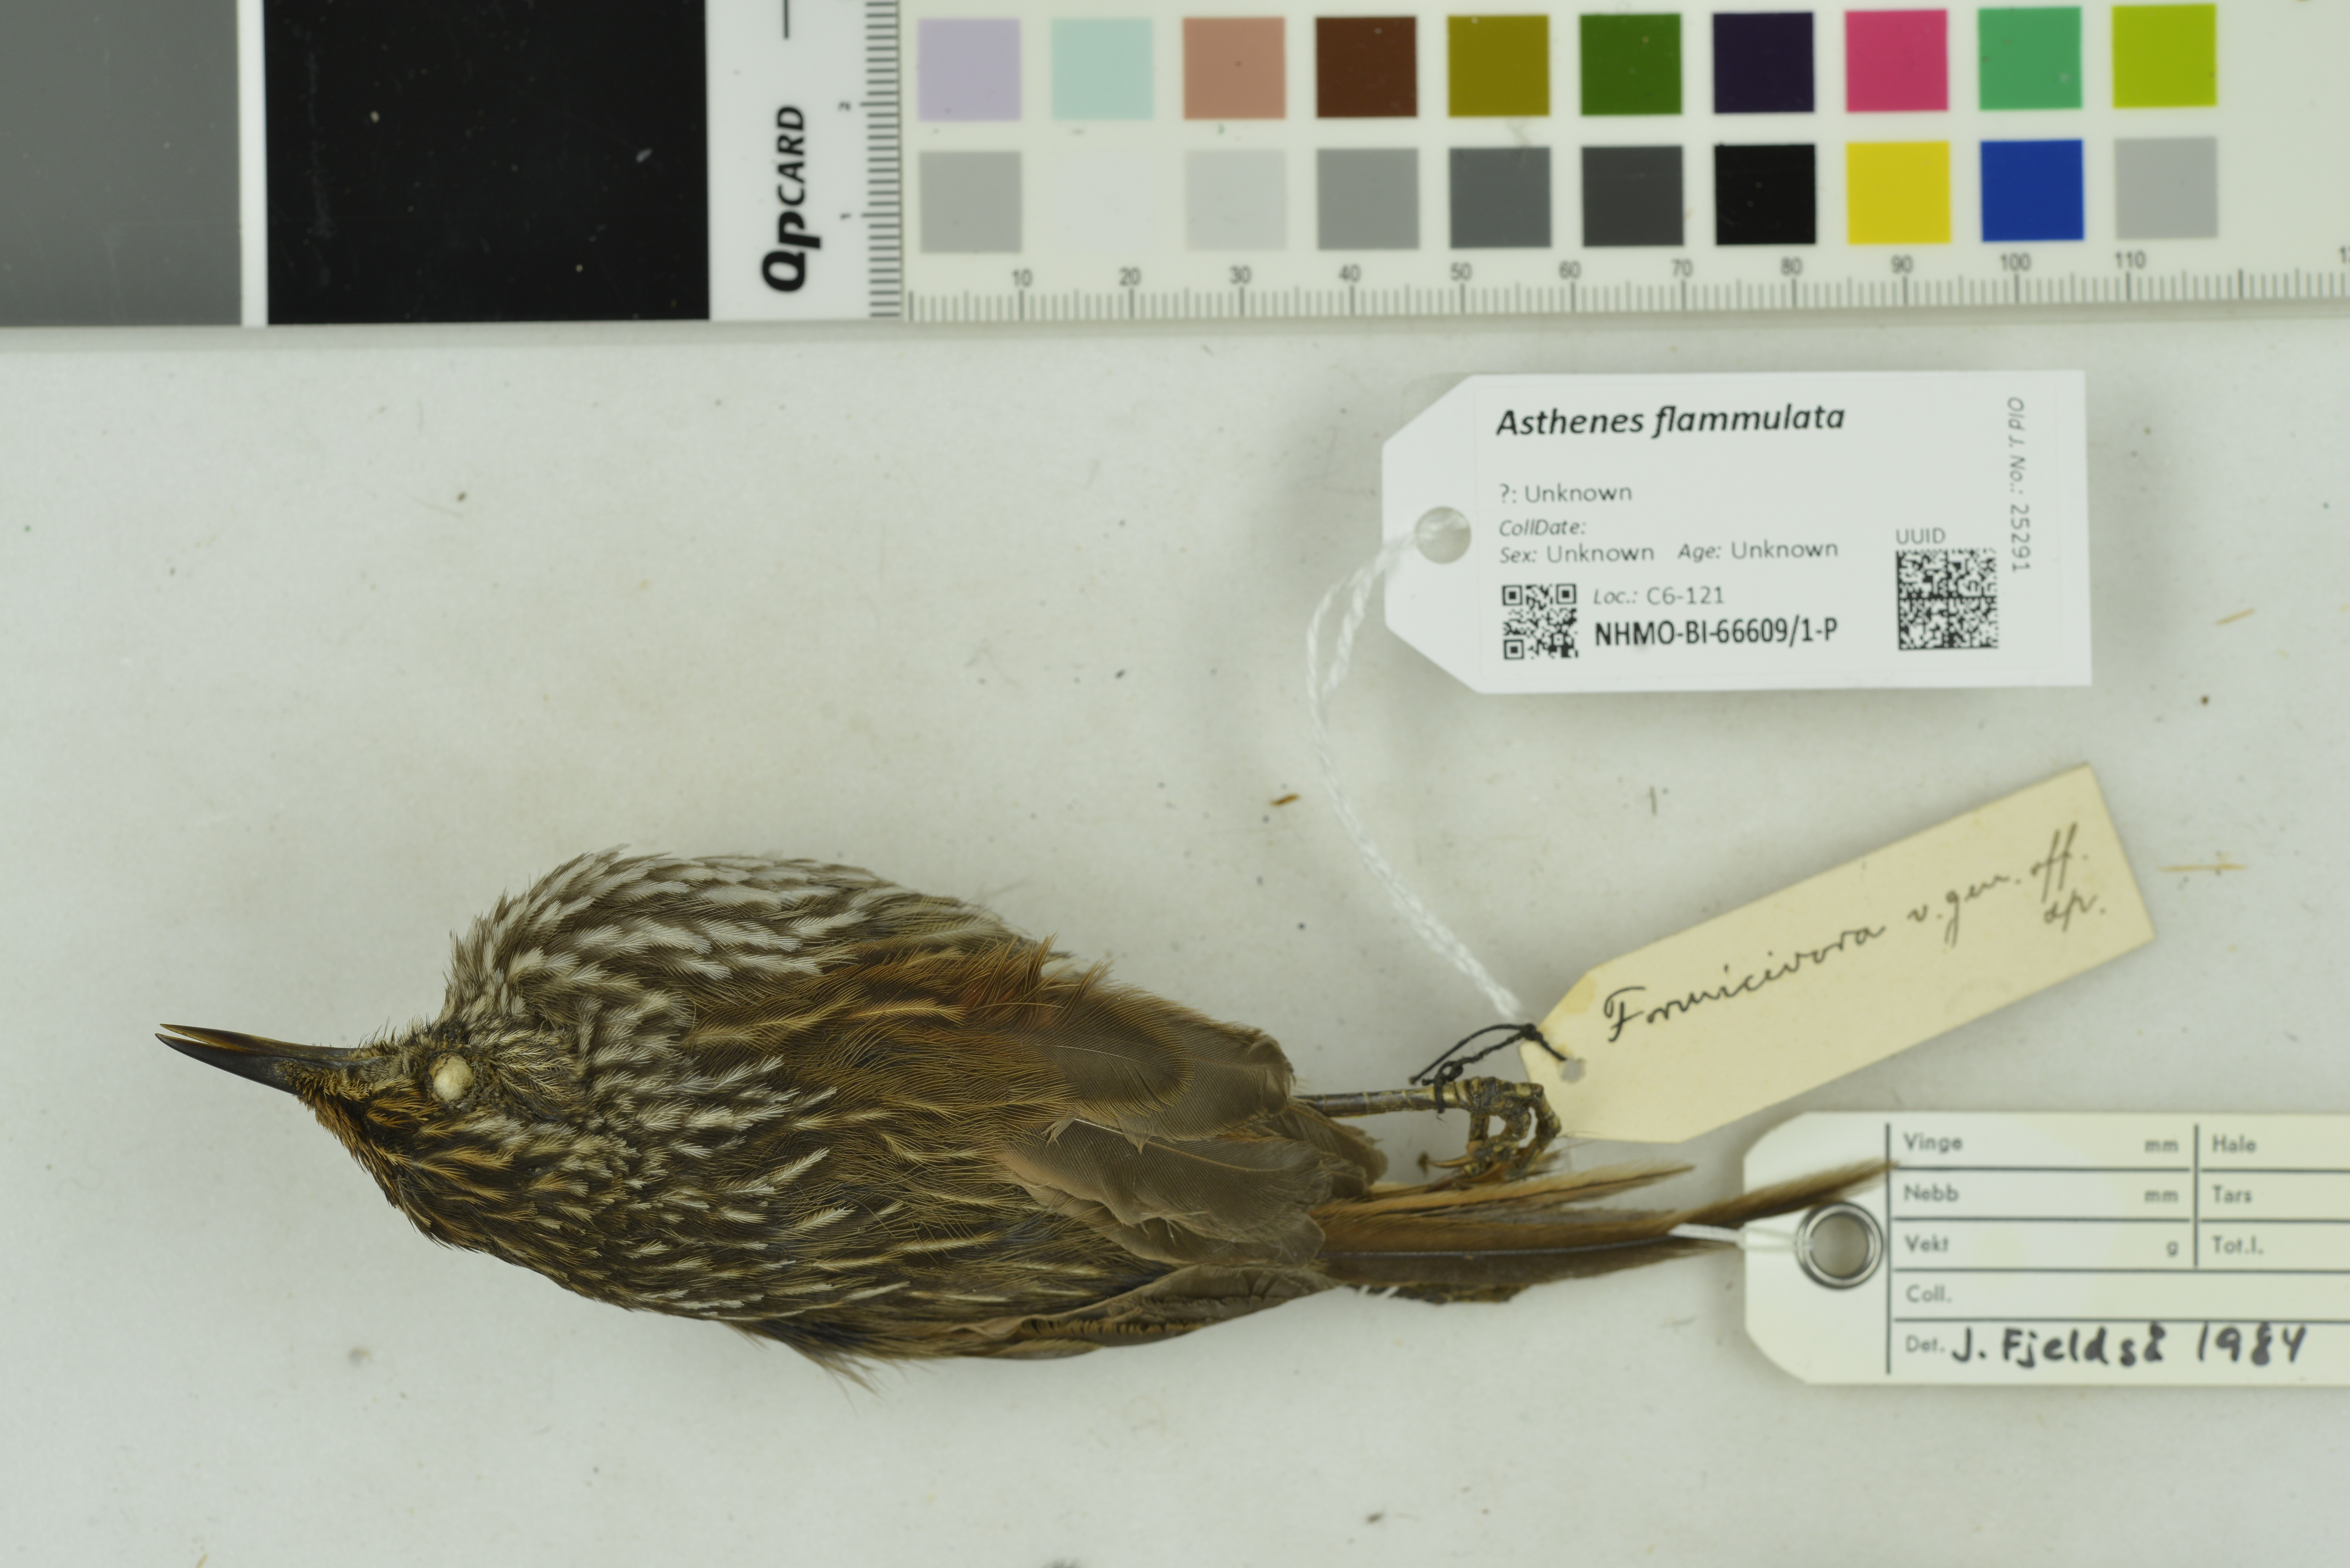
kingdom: Animalia
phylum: Chordata
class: Aves
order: Passeriformes
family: Furnariidae
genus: Asthenes
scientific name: Asthenes flammulata
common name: Many-striped canastero
